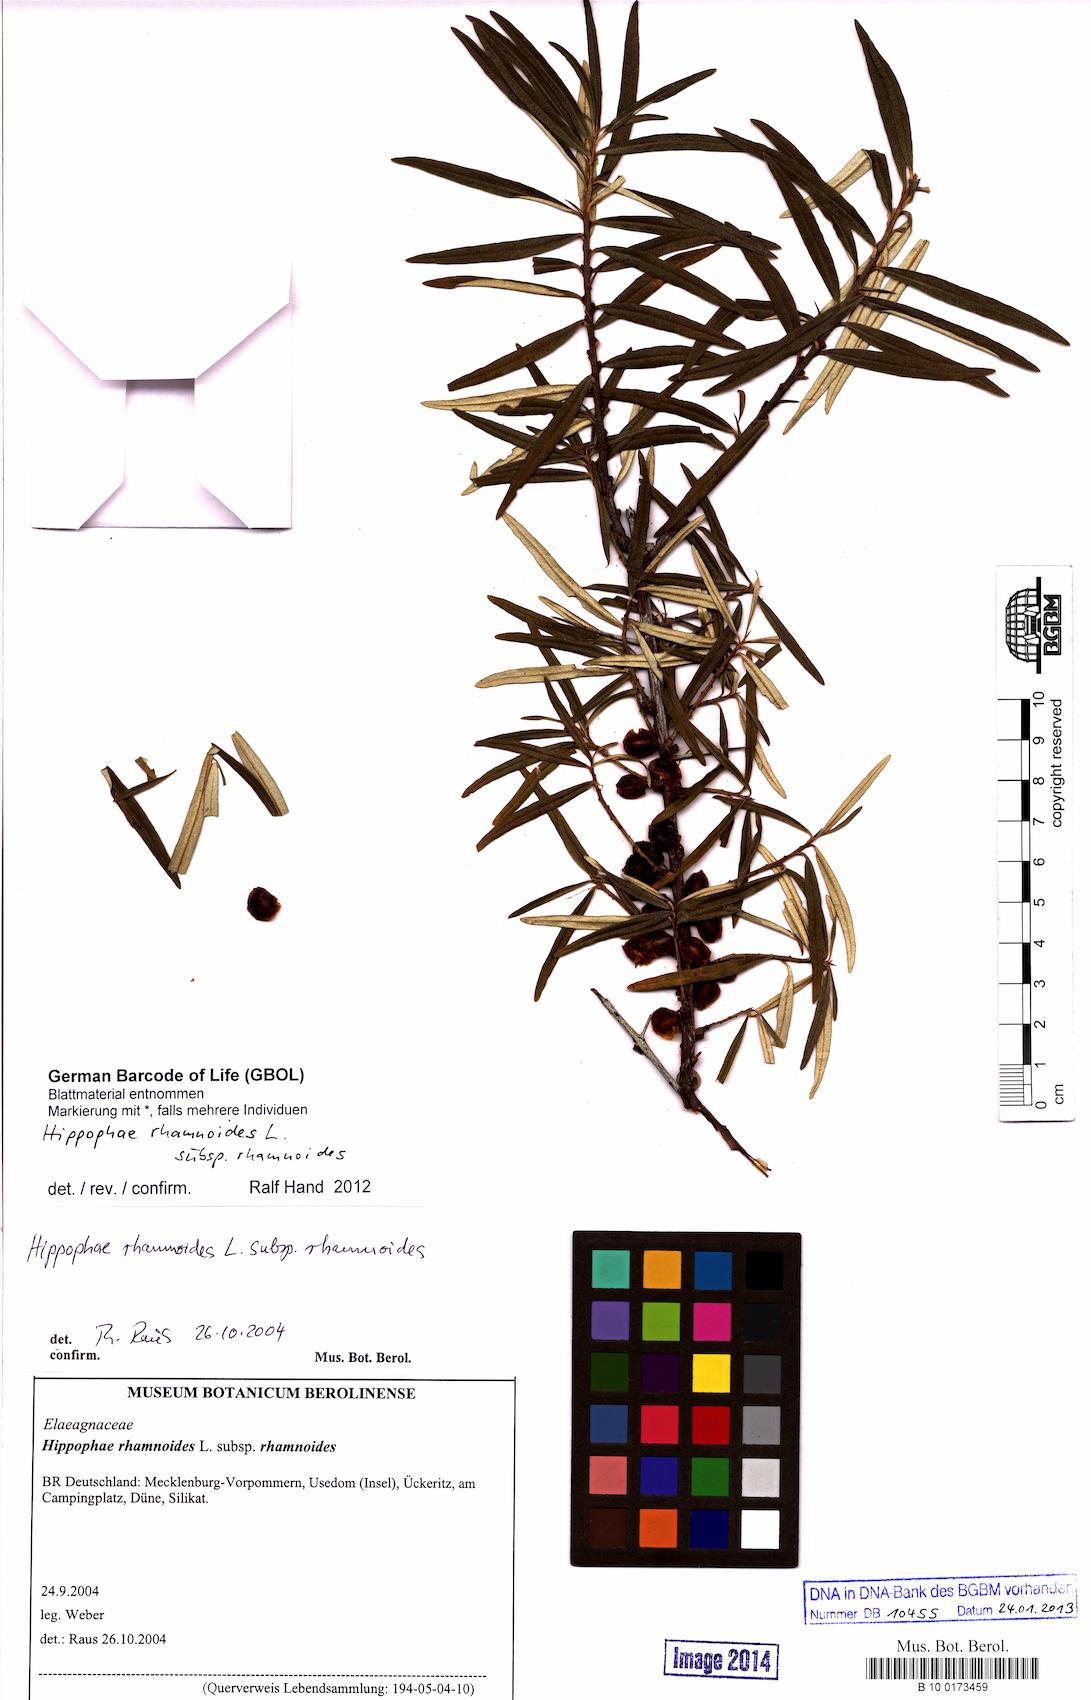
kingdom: Plantae
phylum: Tracheophyta
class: Magnoliopsida
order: Rosales
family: Elaeagnaceae
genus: Hippophae
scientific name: Hippophae rhamnoides
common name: Sea-buckthorn
